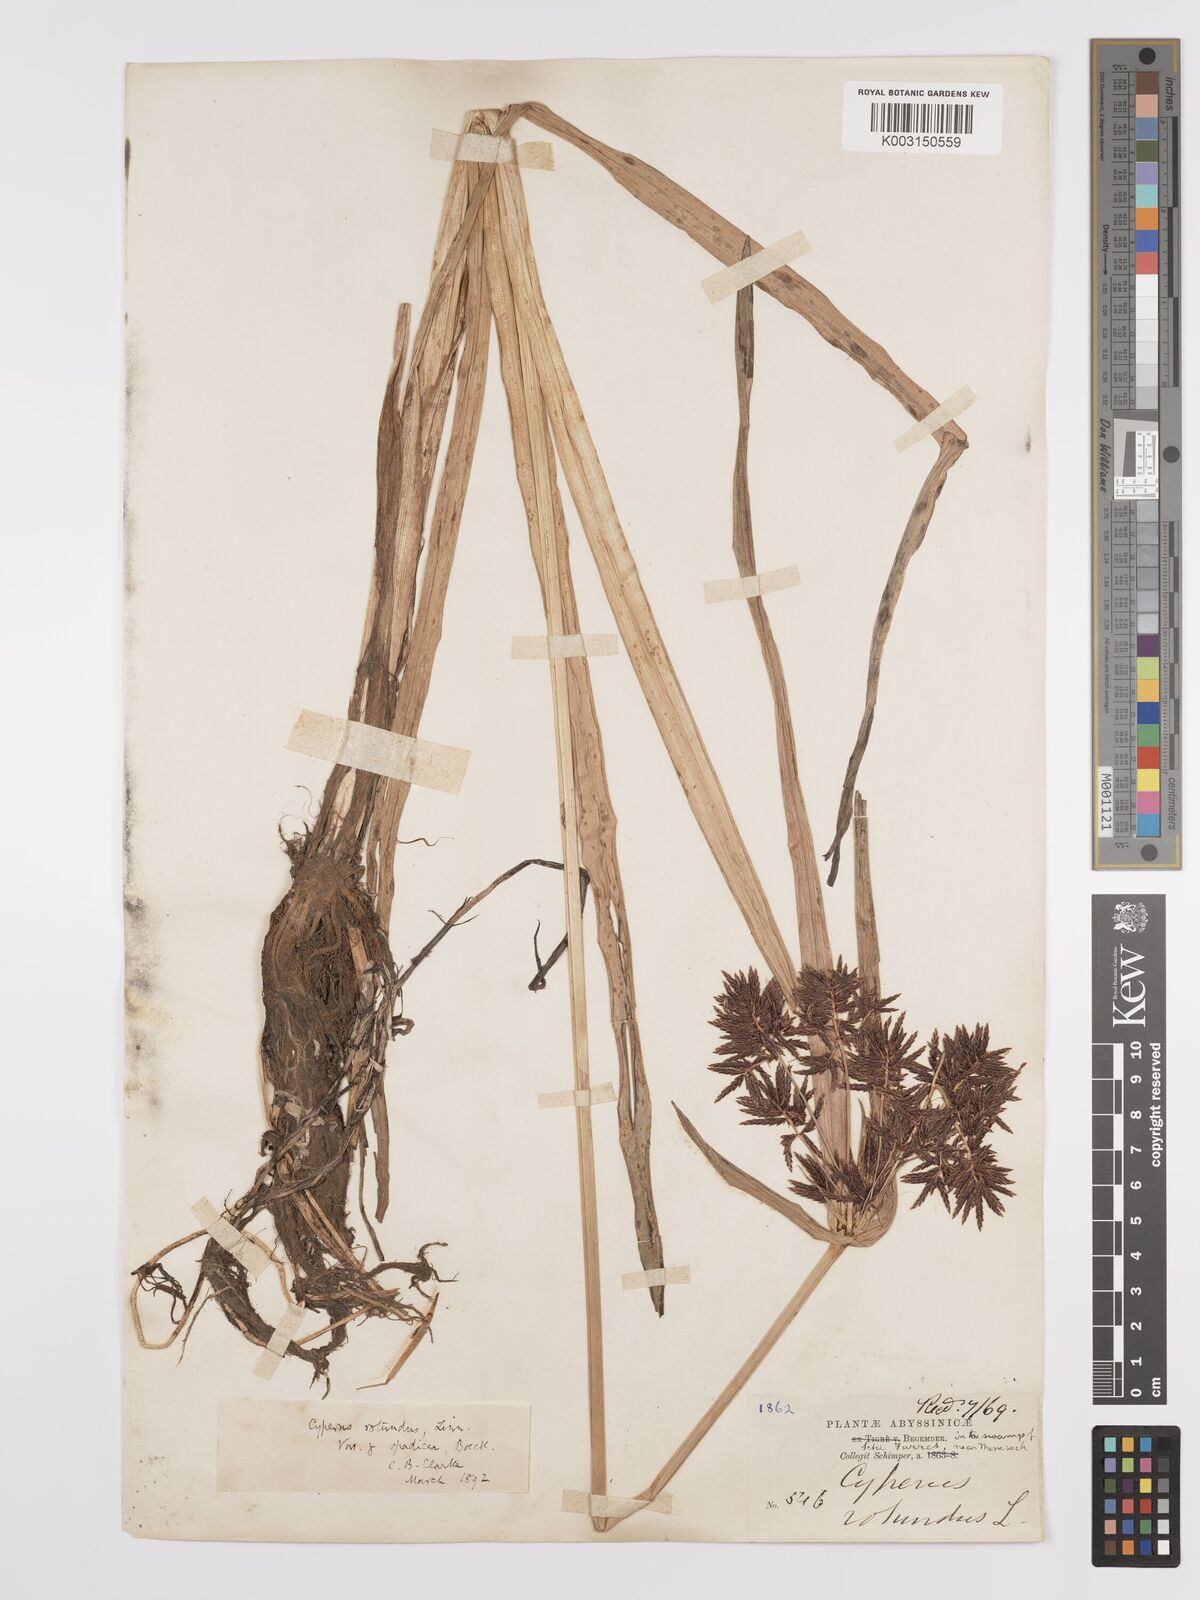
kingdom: Plantae
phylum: Tracheophyta
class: Liliopsida
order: Poales
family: Cyperaceae
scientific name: Cyperaceae
